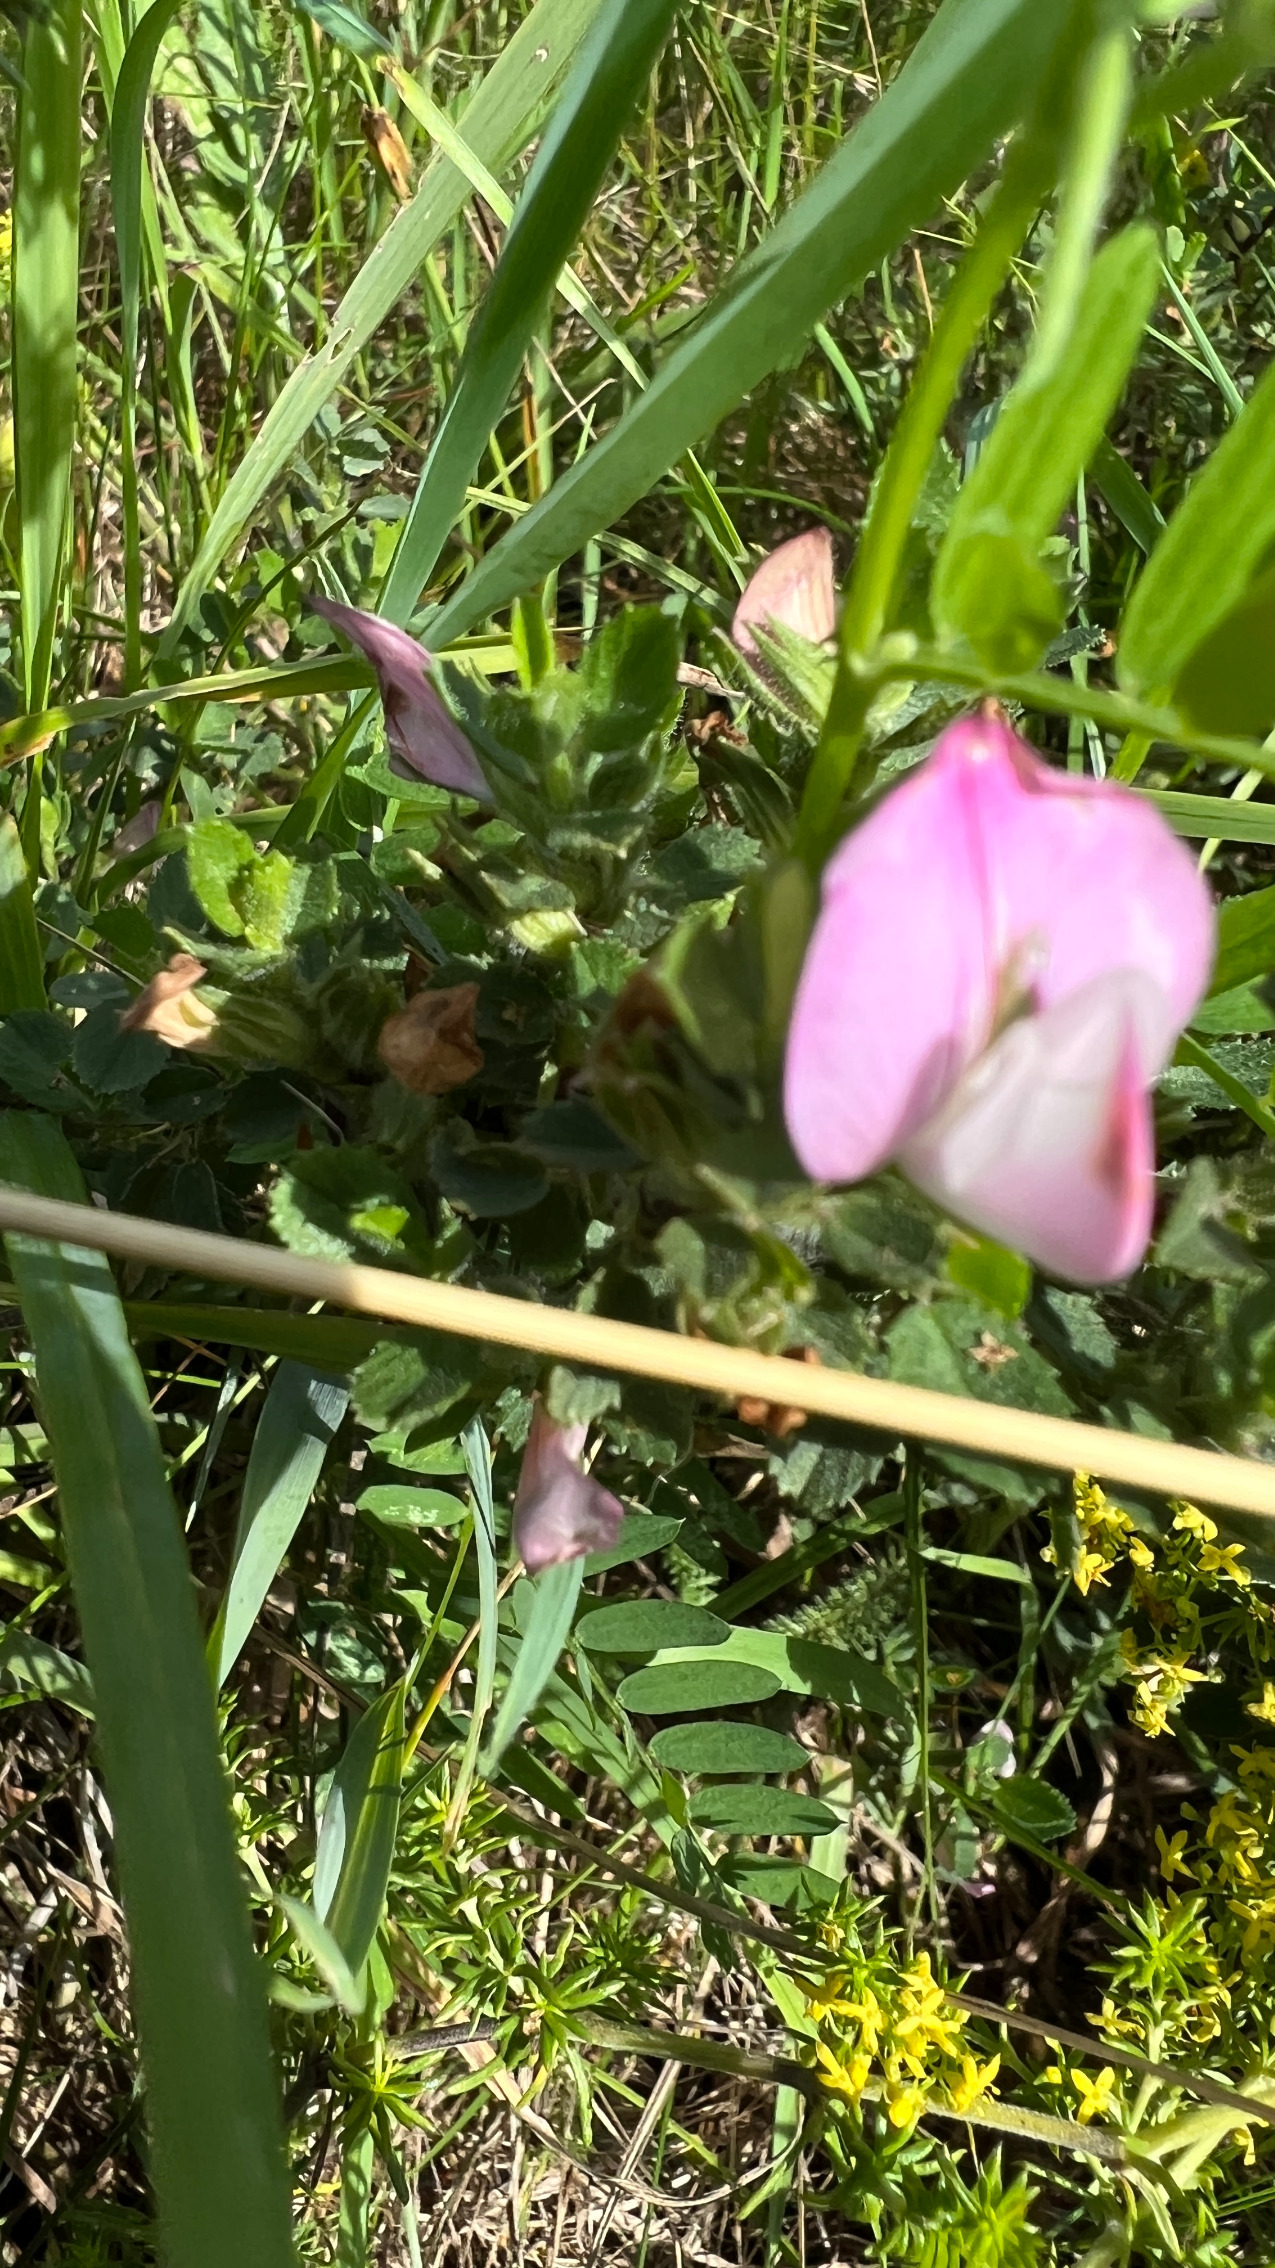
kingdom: Plantae
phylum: Tracheophyta
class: Magnoliopsida
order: Fabales
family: Fabaceae
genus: Ononis
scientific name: Ononis spinosa
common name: Mark-krageklo
